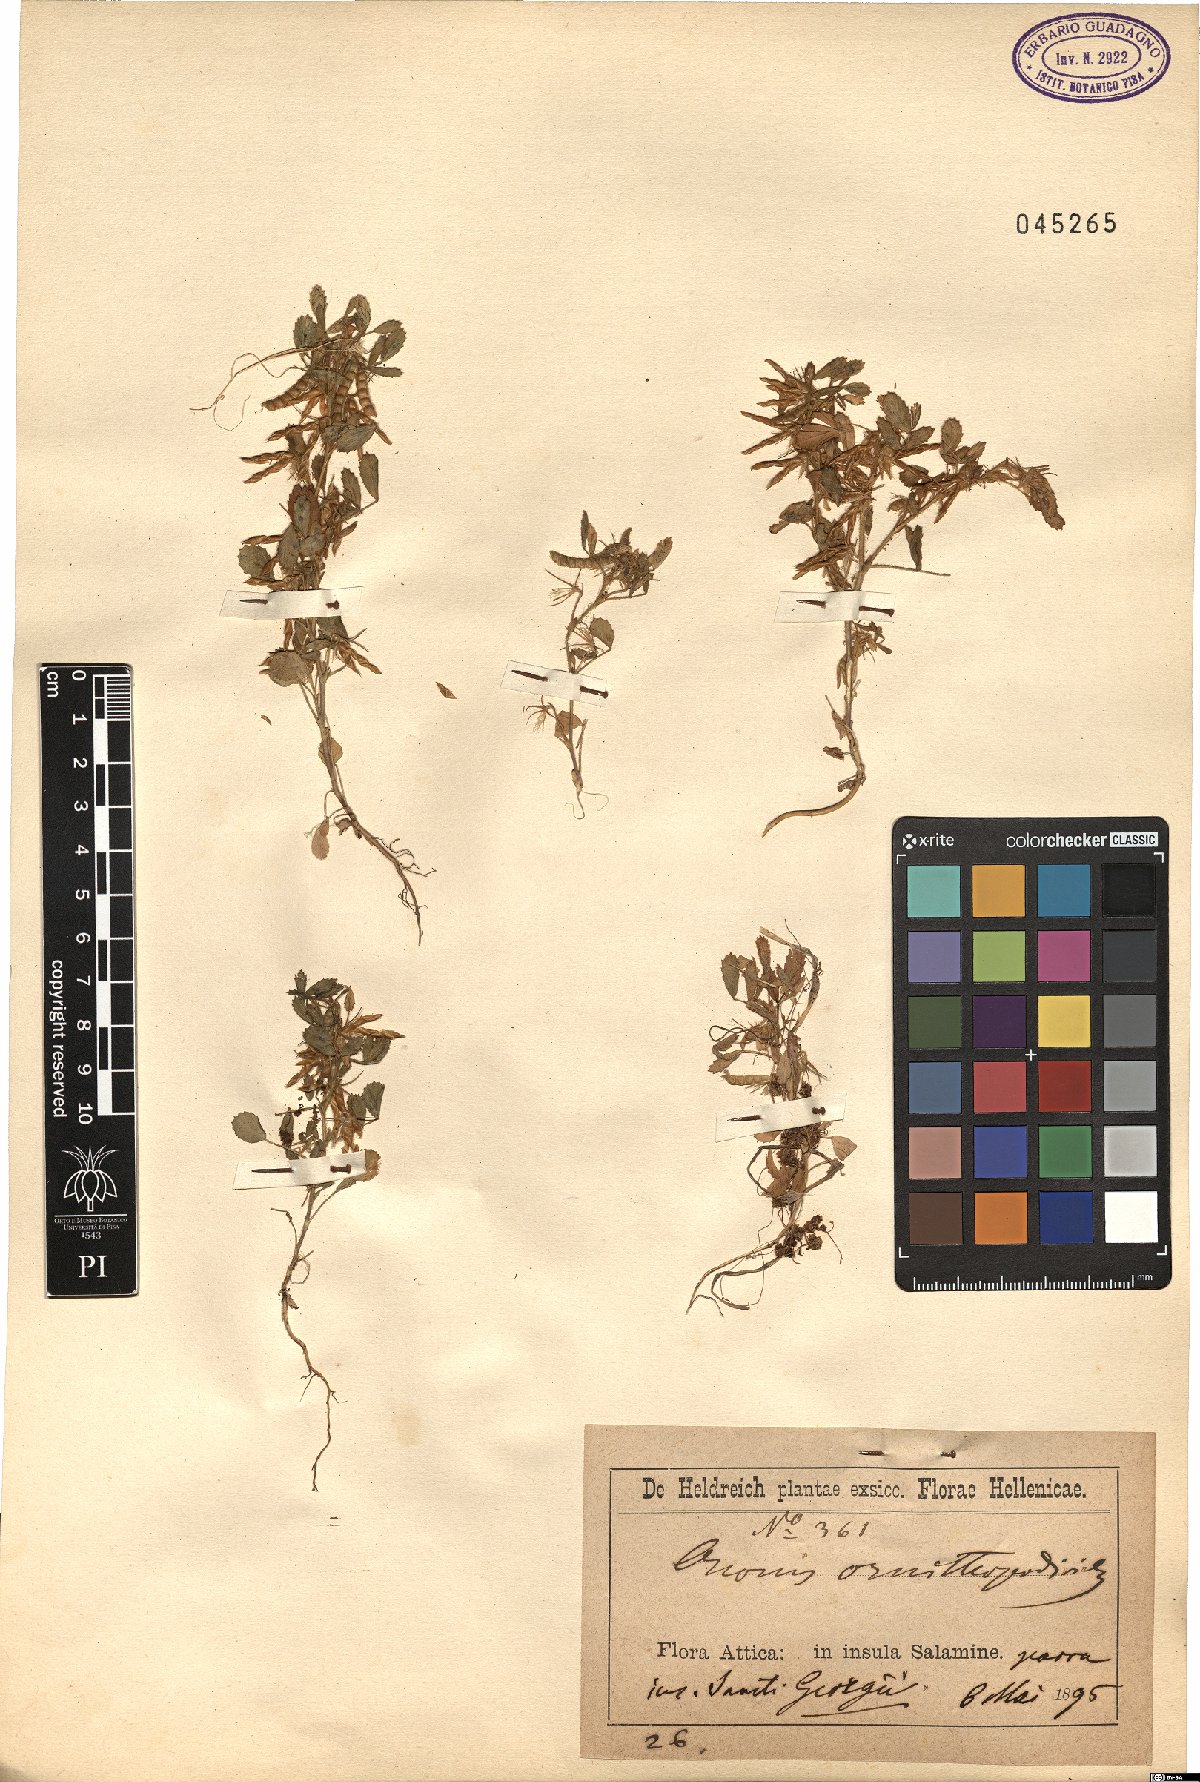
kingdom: Plantae
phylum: Tracheophyta
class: Magnoliopsida
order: Fabales
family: Fabaceae
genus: Ononis
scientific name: Ononis ornithopodioides
